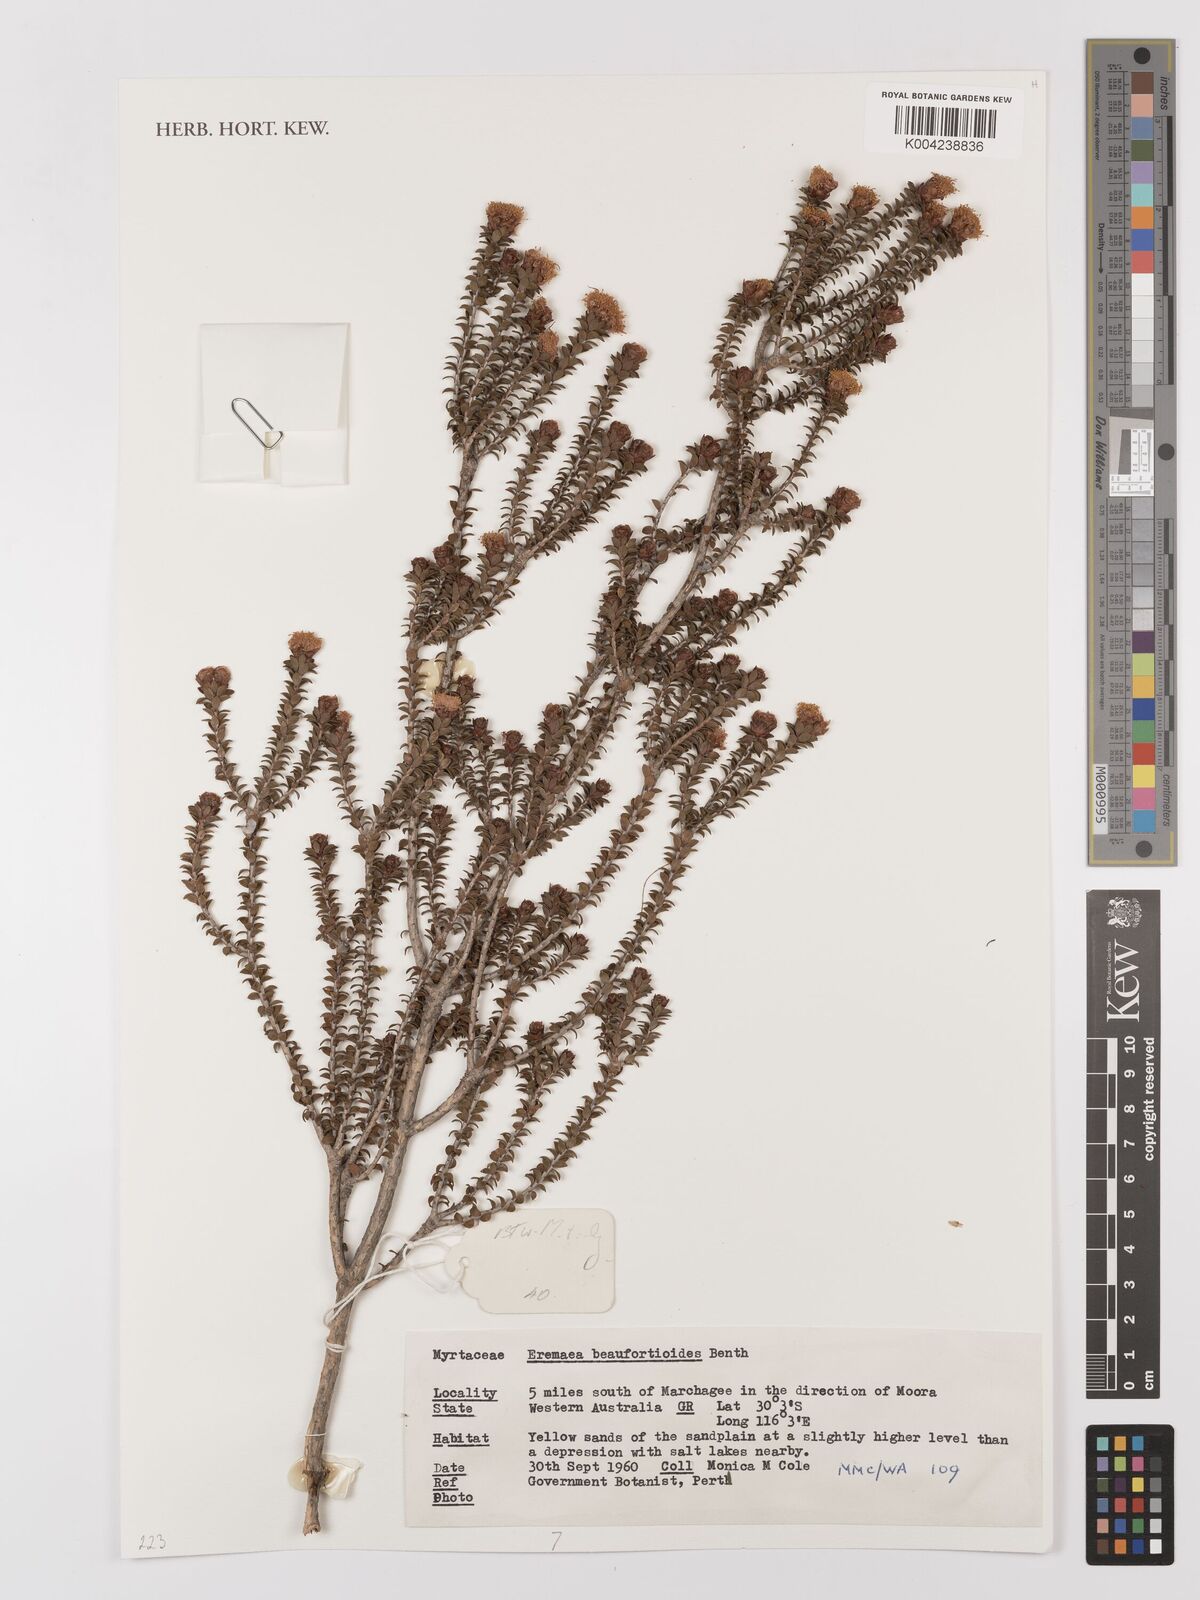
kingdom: Plantae
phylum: Tracheophyta
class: Magnoliopsida
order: Myrtales
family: Myrtaceae
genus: Melaleuca
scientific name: Melaleuca beaufortioides
